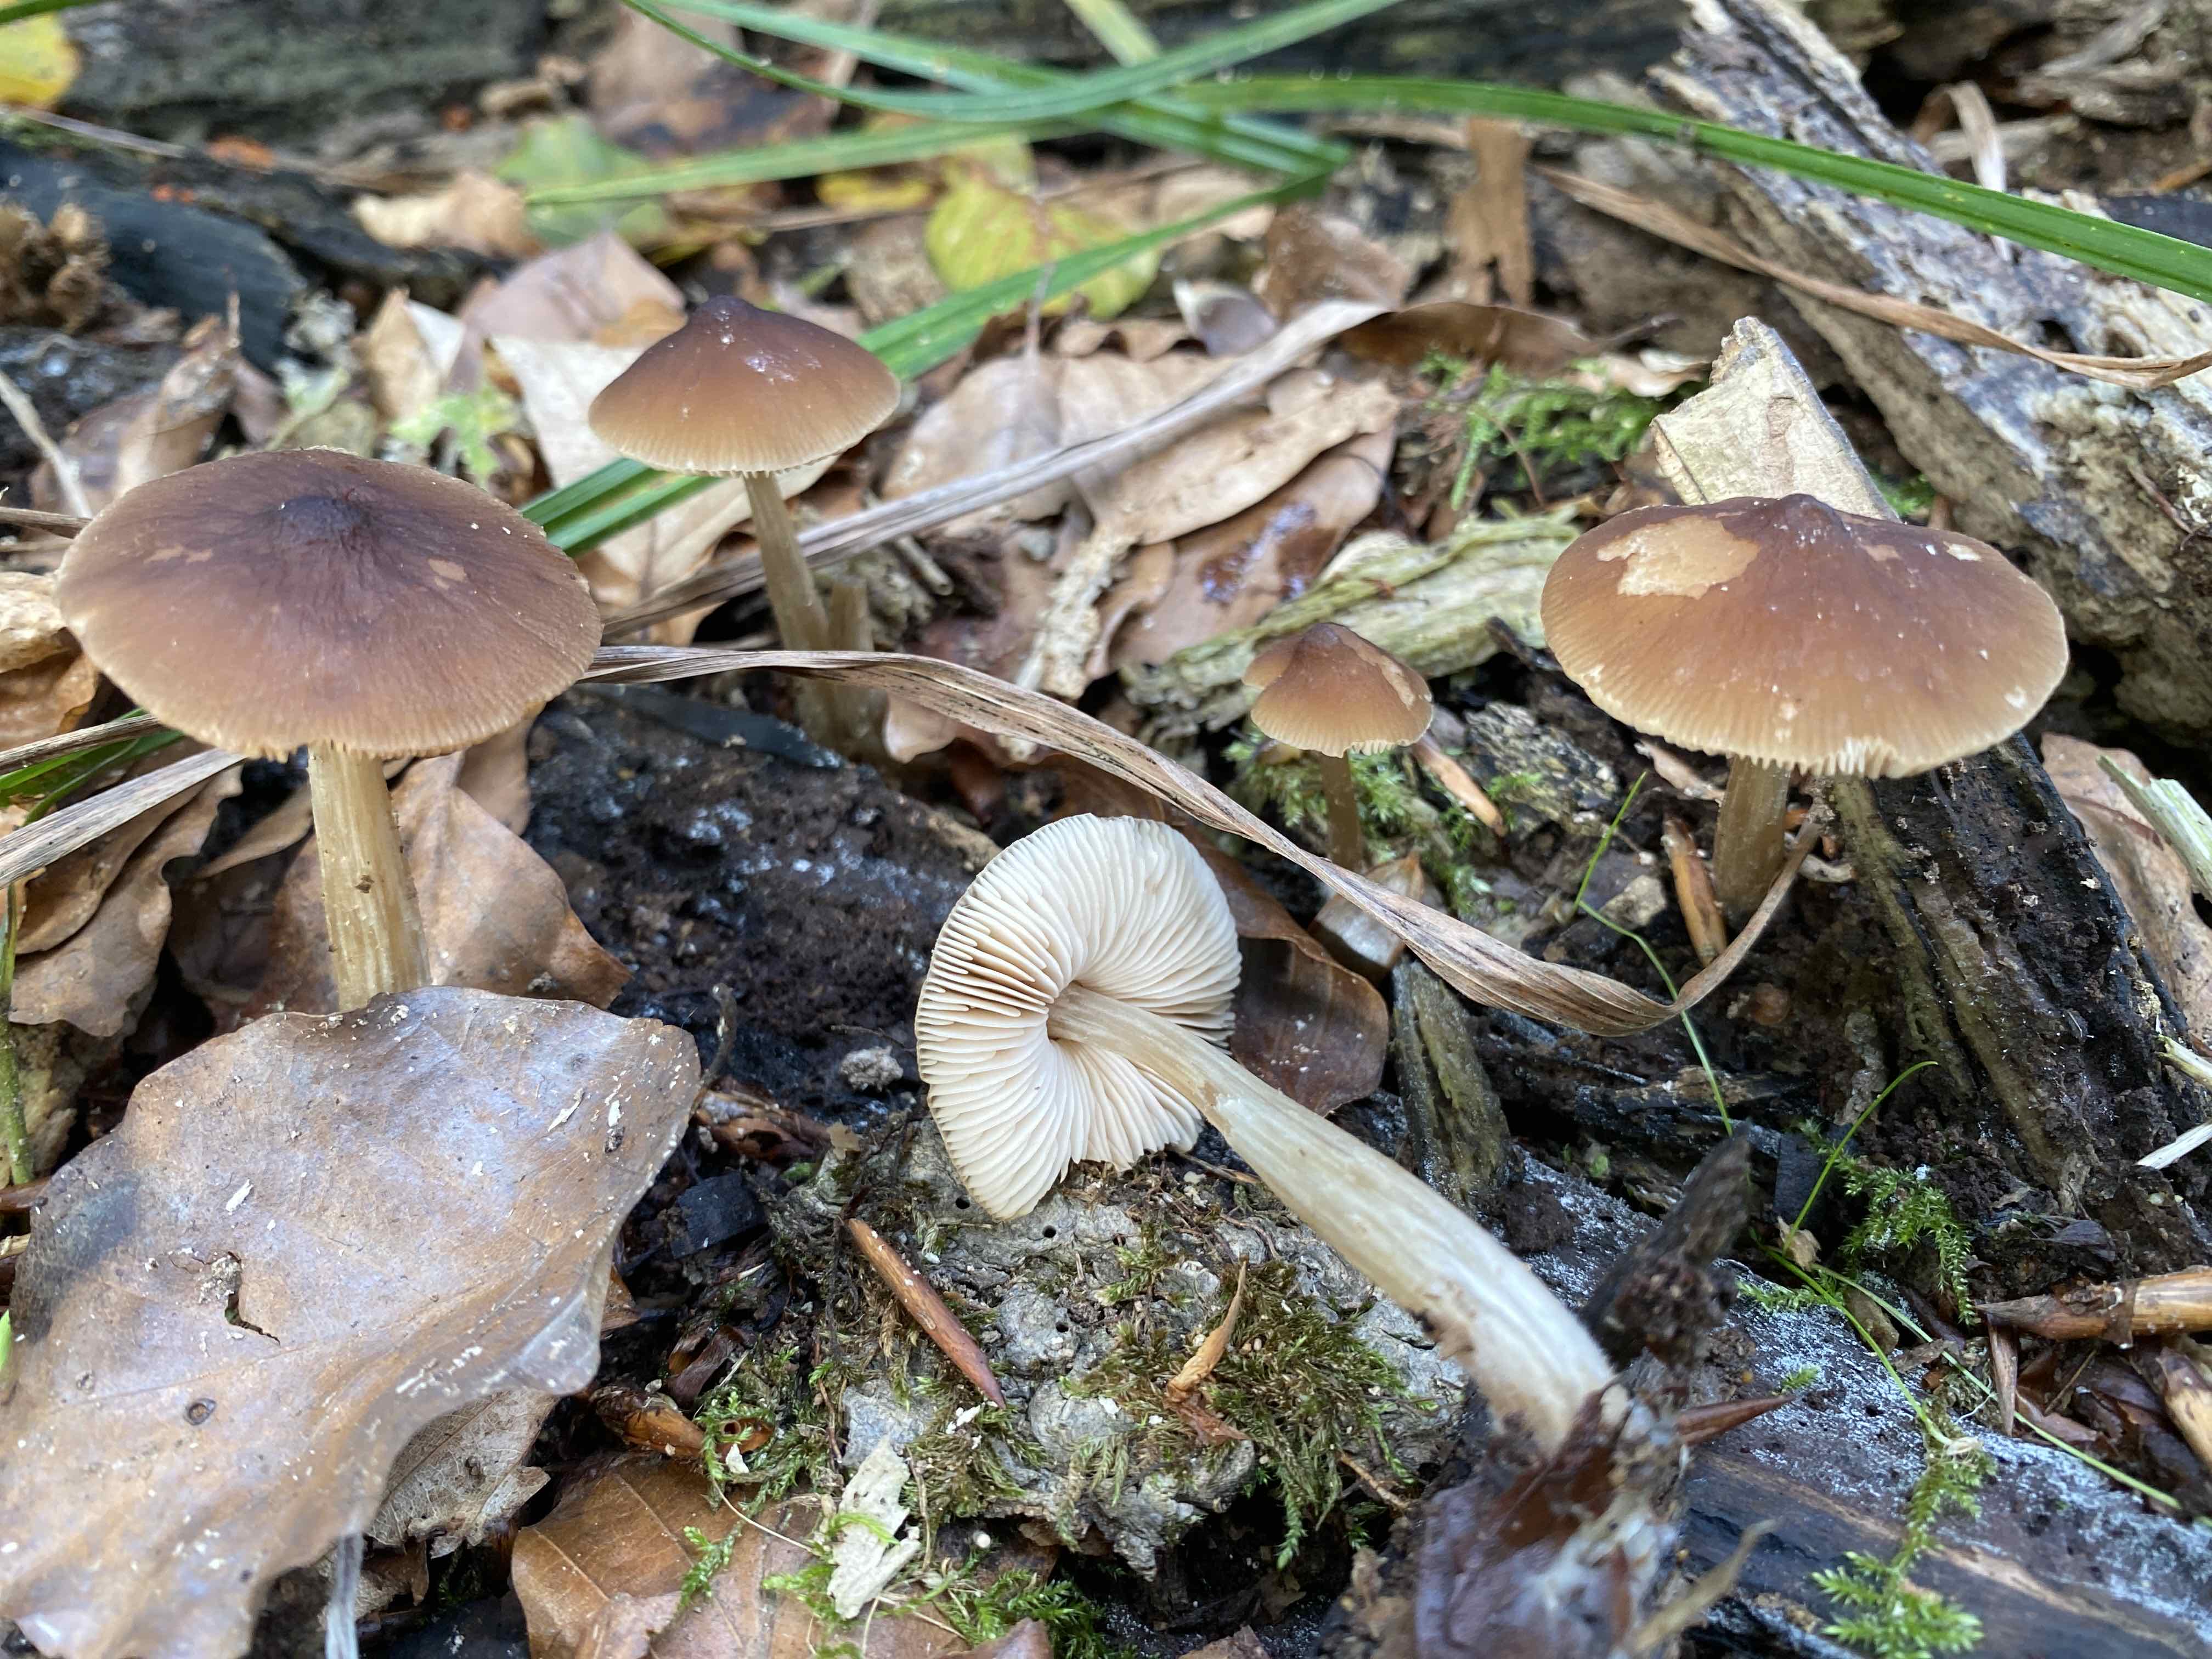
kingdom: Fungi
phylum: Basidiomycota
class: Agaricomycetes
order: Agaricales
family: Pluteaceae
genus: Pluteus
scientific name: Pluteus phlebophorus
